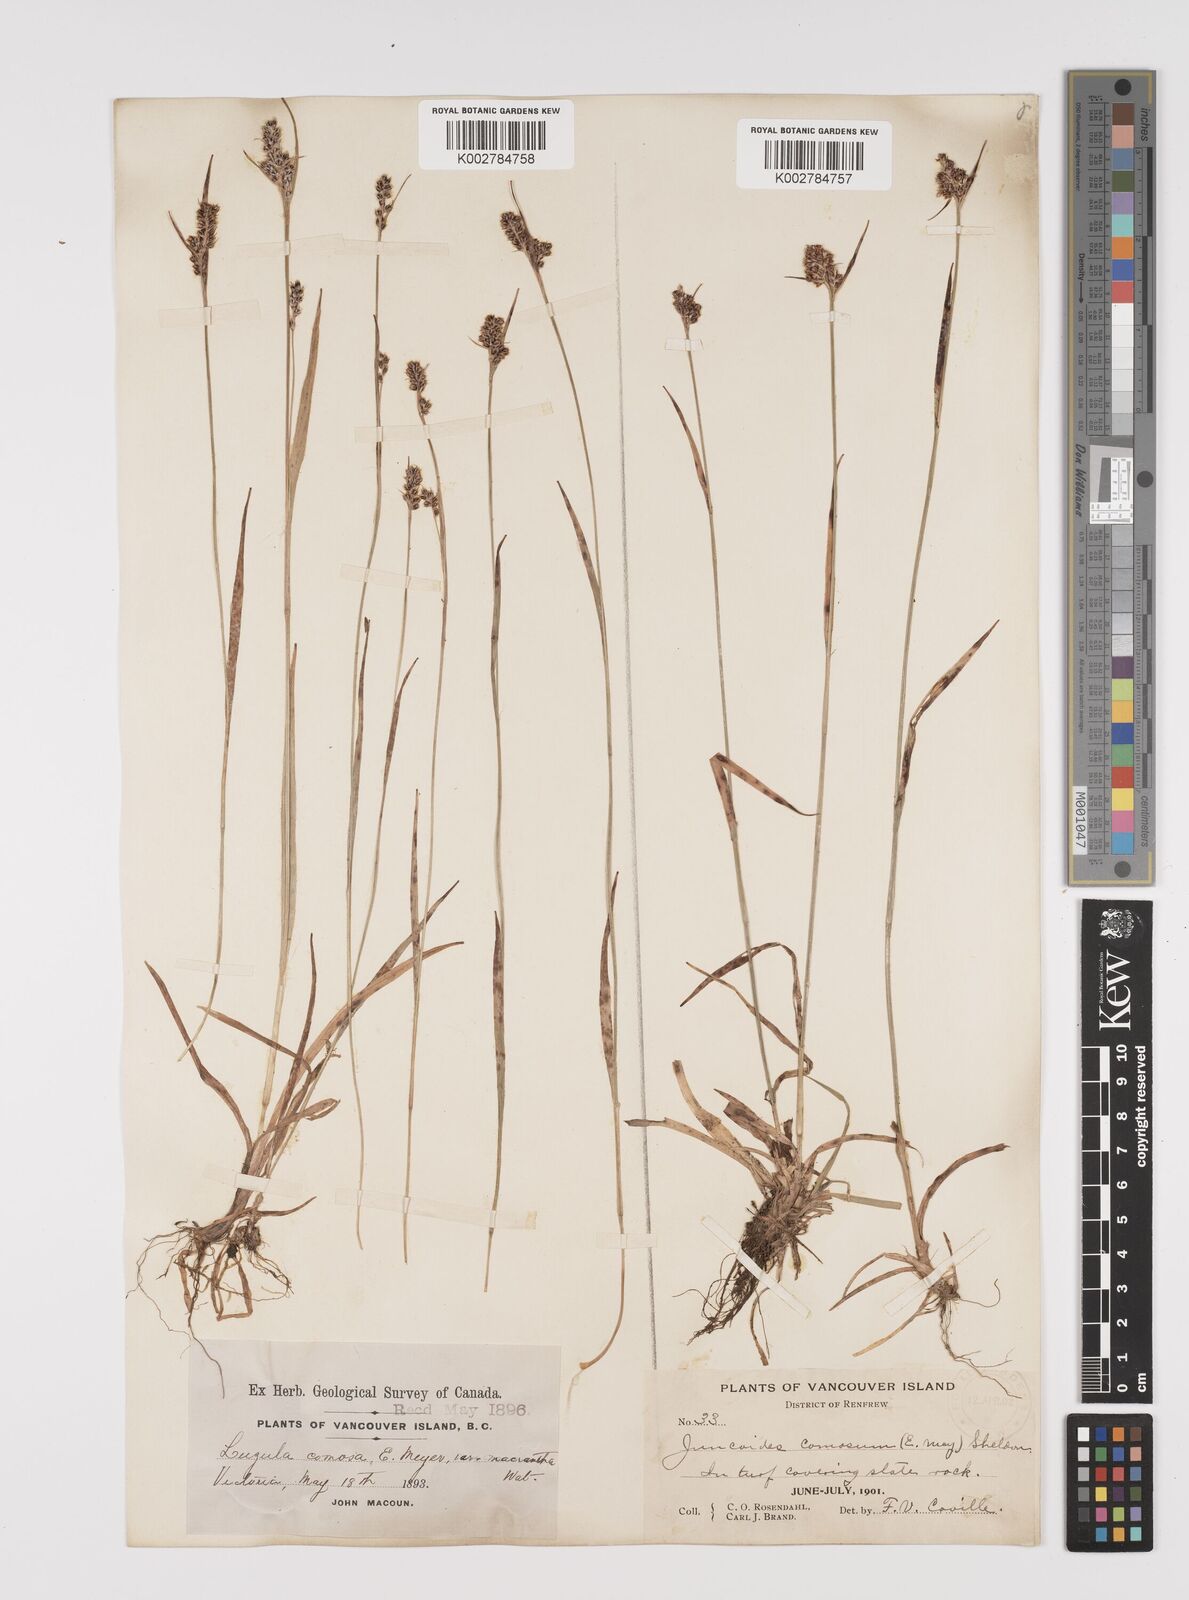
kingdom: Plantae
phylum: Tracheophyta
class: Liliopsida
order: Poales
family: Juncaceae
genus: Luzula
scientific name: Luzula comosa
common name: Pacific woodrush
